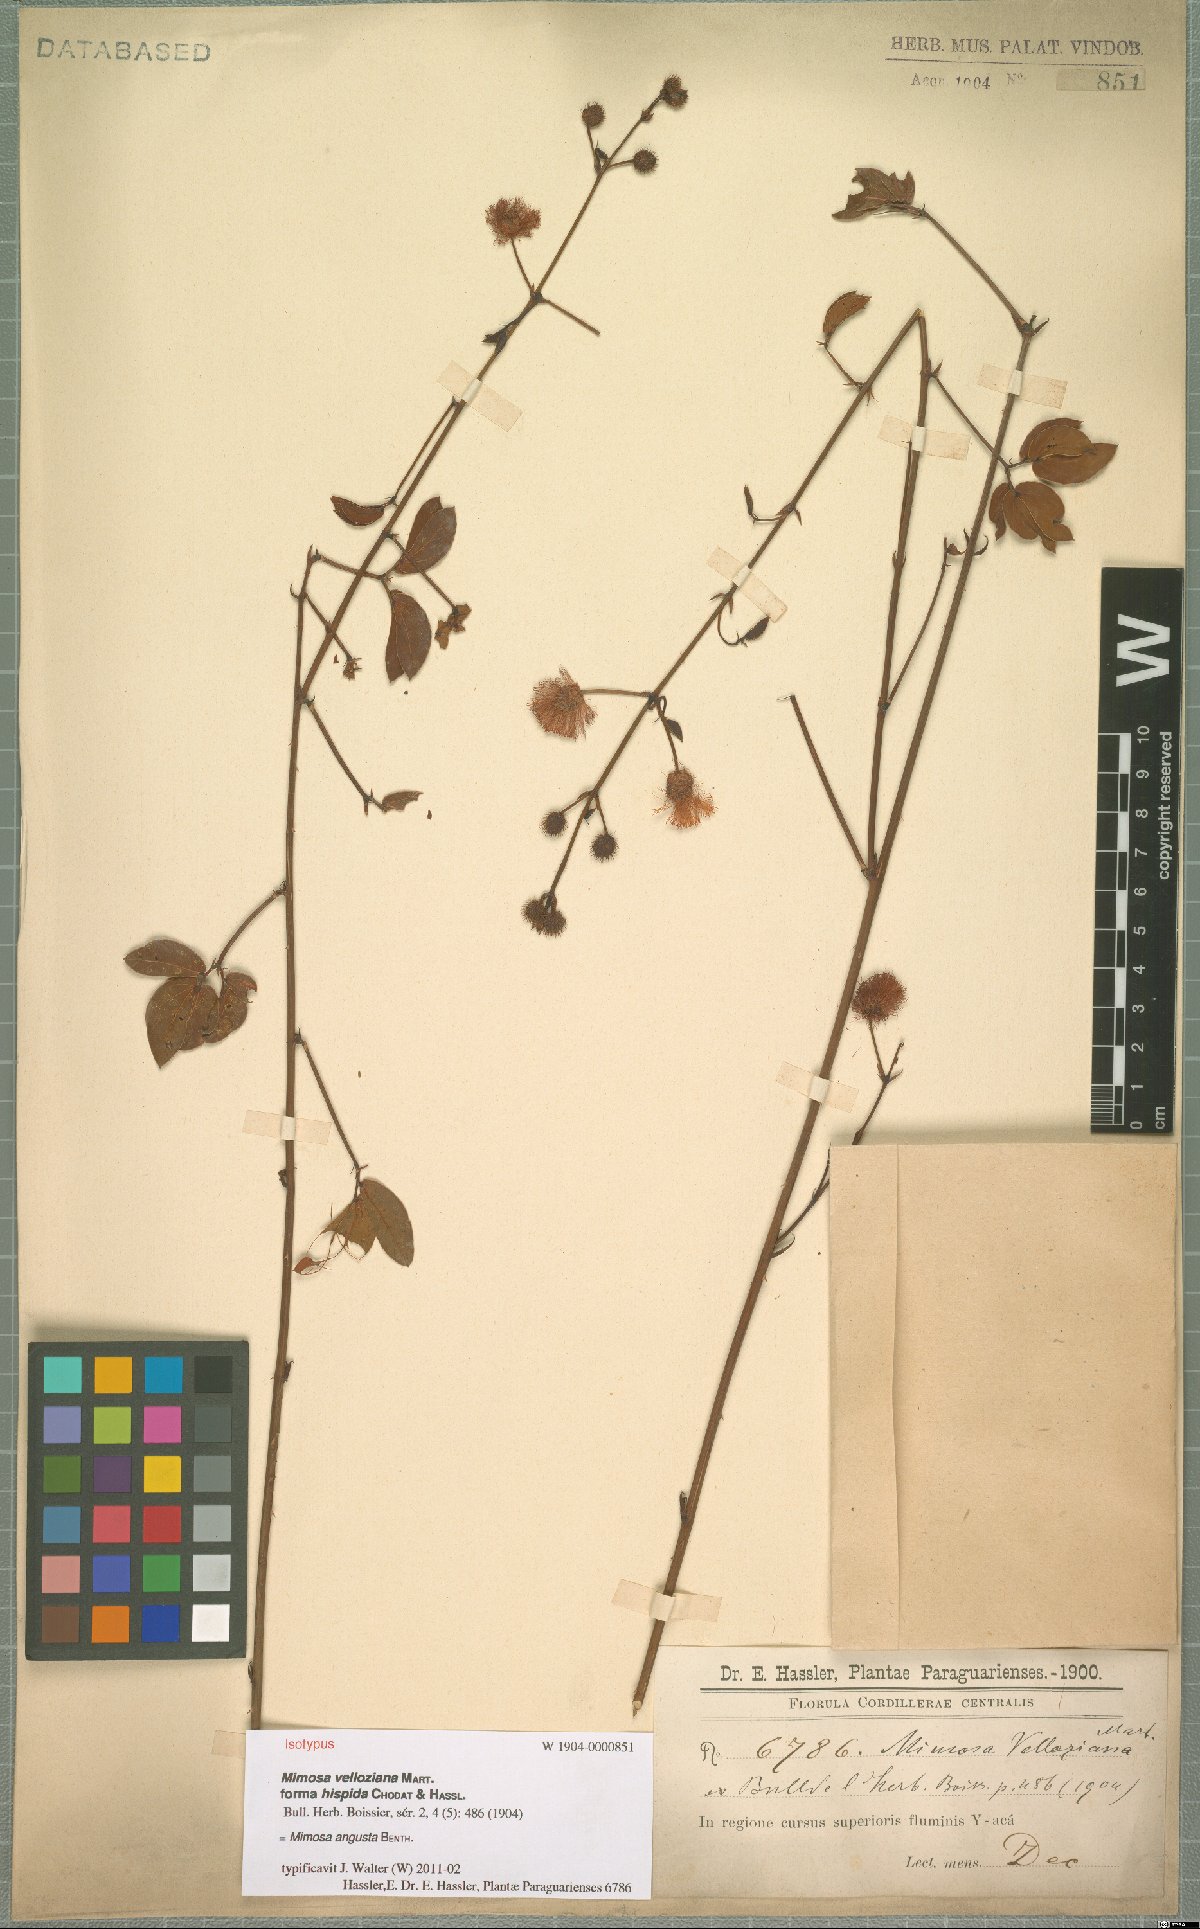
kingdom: Plantae
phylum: Tracheophyta
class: Magnoliopsida
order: Fabales
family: Fabaceae
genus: Mimosa
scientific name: Mimosa debilis
